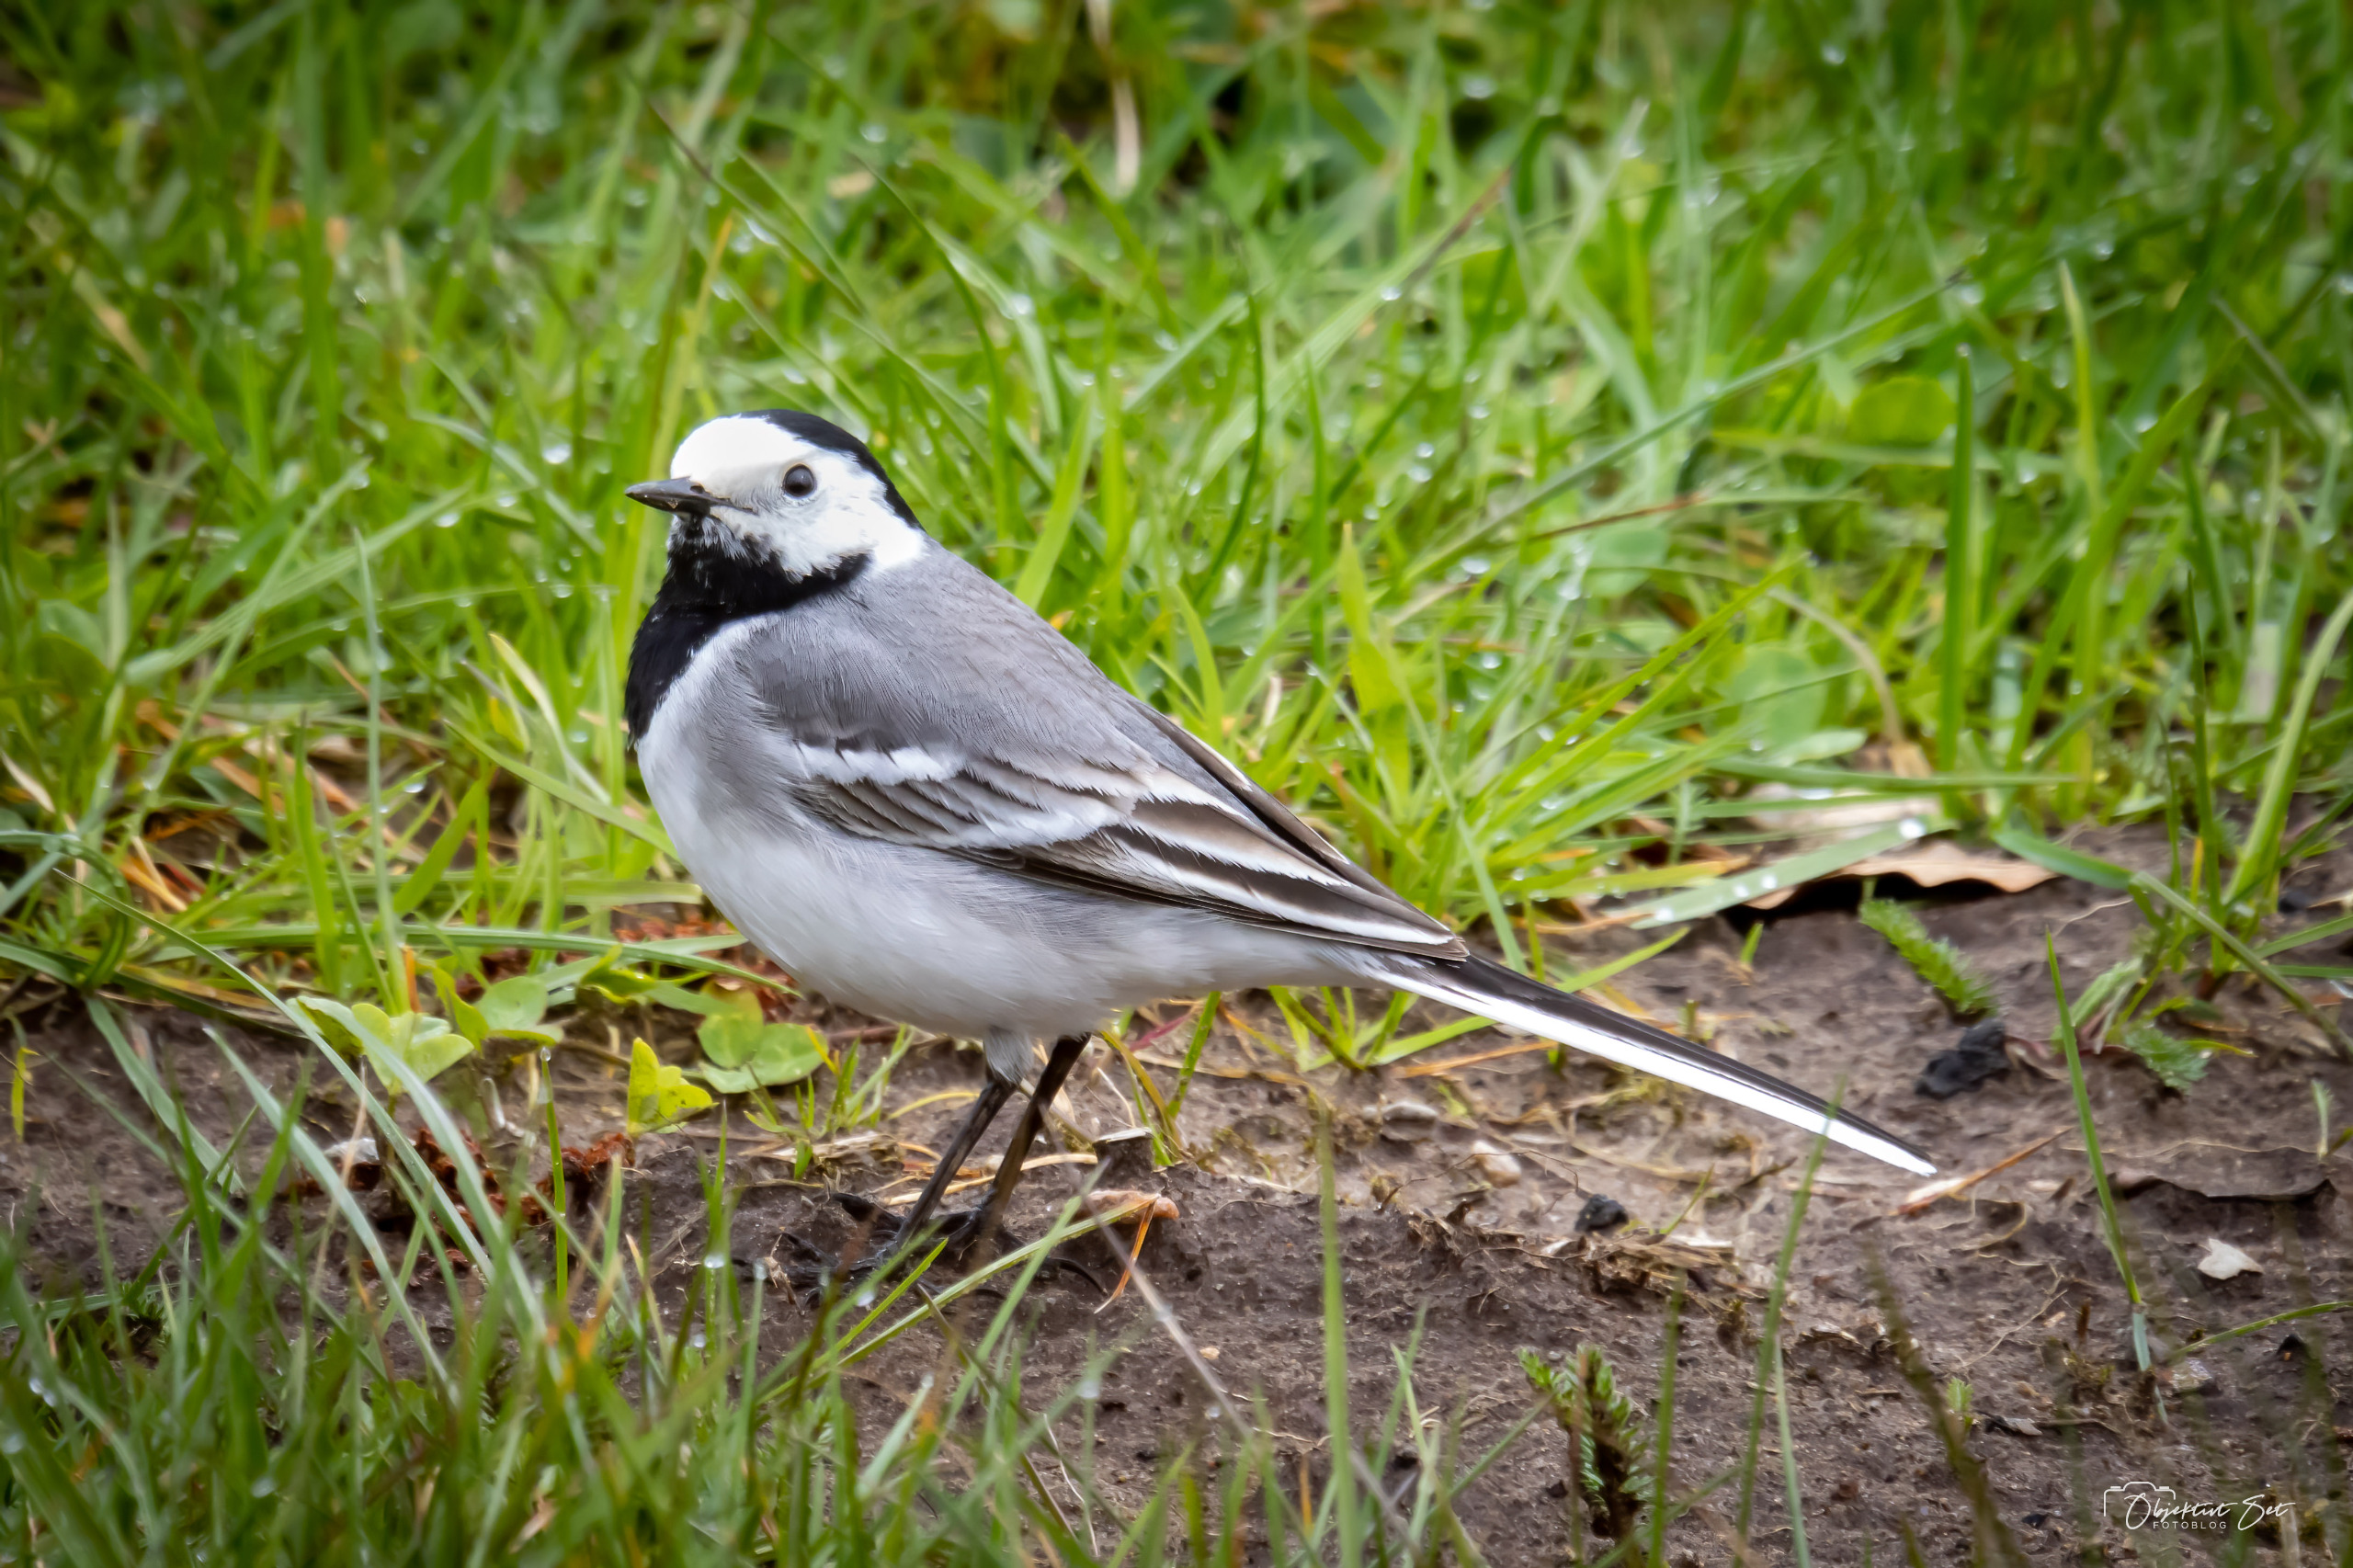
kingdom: Animalia
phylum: Chordata
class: Aves
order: Passeriformes
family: Motacillidae
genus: Motacilla
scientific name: Motacilla alba
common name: Hvid vipstjert
